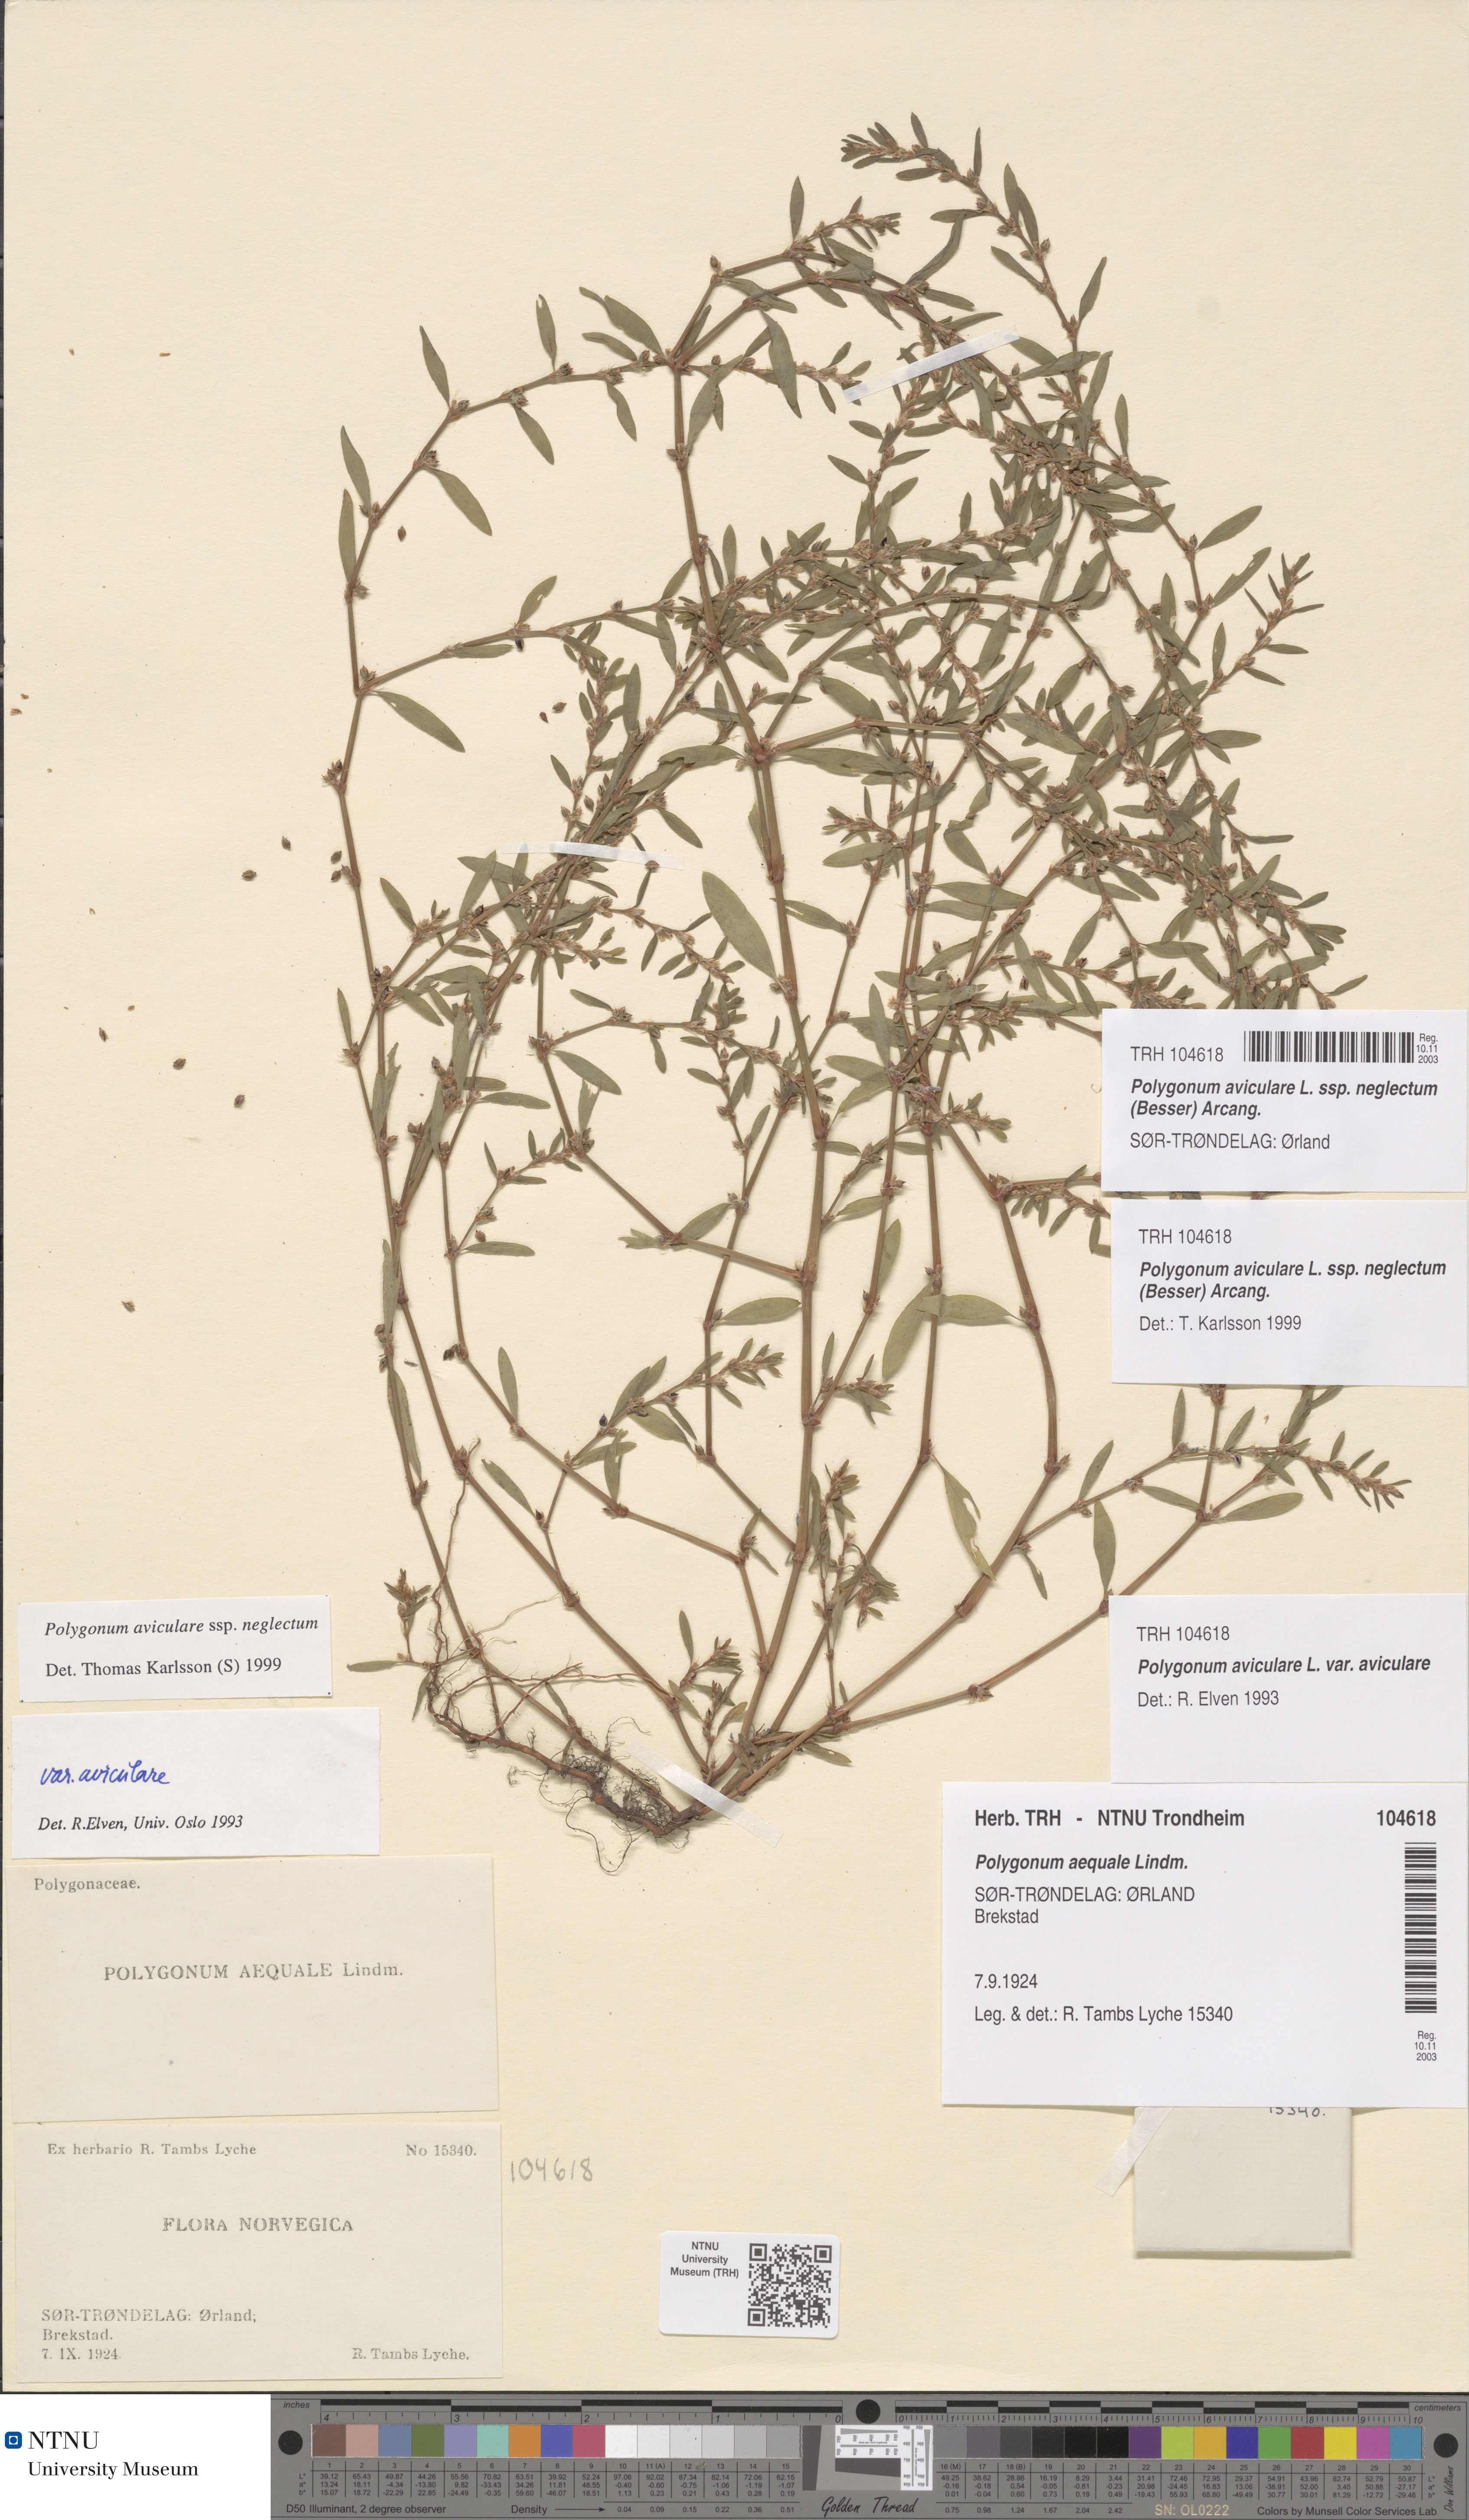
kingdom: Plantae
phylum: Tracheophyta
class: Magnoliopsida
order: Caryophyllales
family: Polygonaceae
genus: Polygonum
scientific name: Polygonum aviculare
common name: Prostrate knotweed
